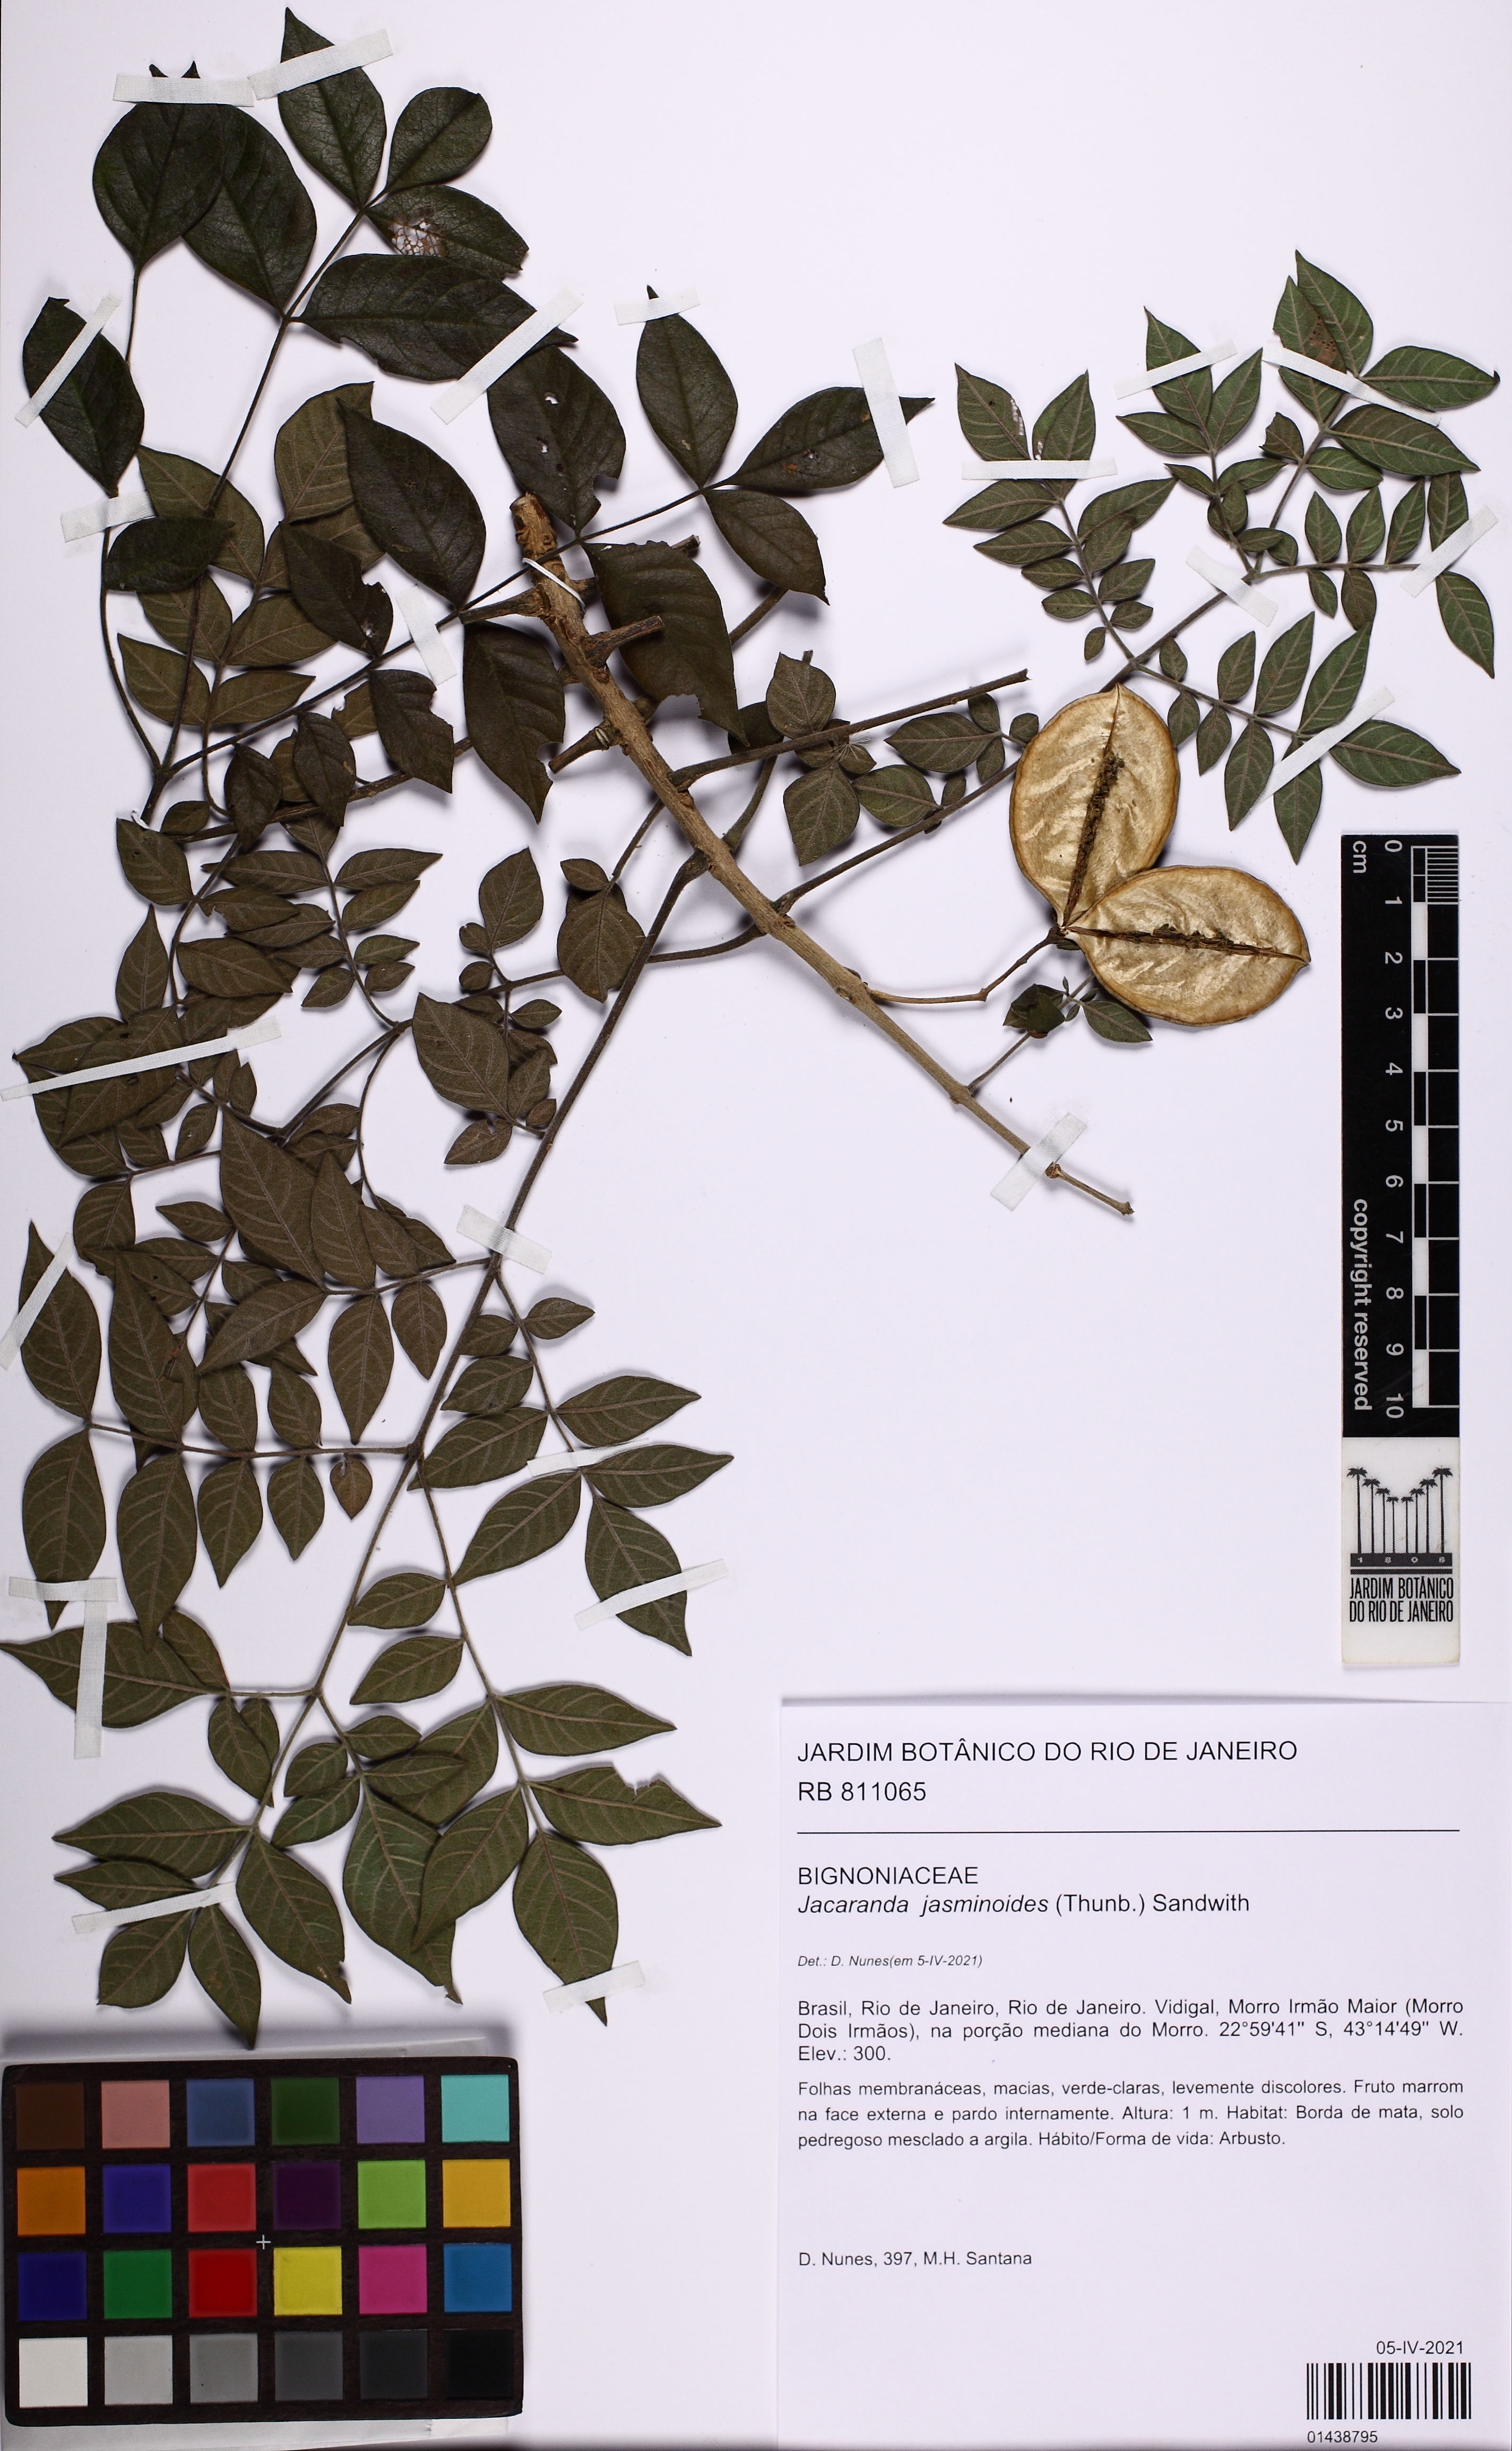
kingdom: Plantae
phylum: Tracheophyta
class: Magnoliopsida
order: Lamiales
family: Bignoniaceae
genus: Jacaranda
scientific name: Jacaranda jasminoides
